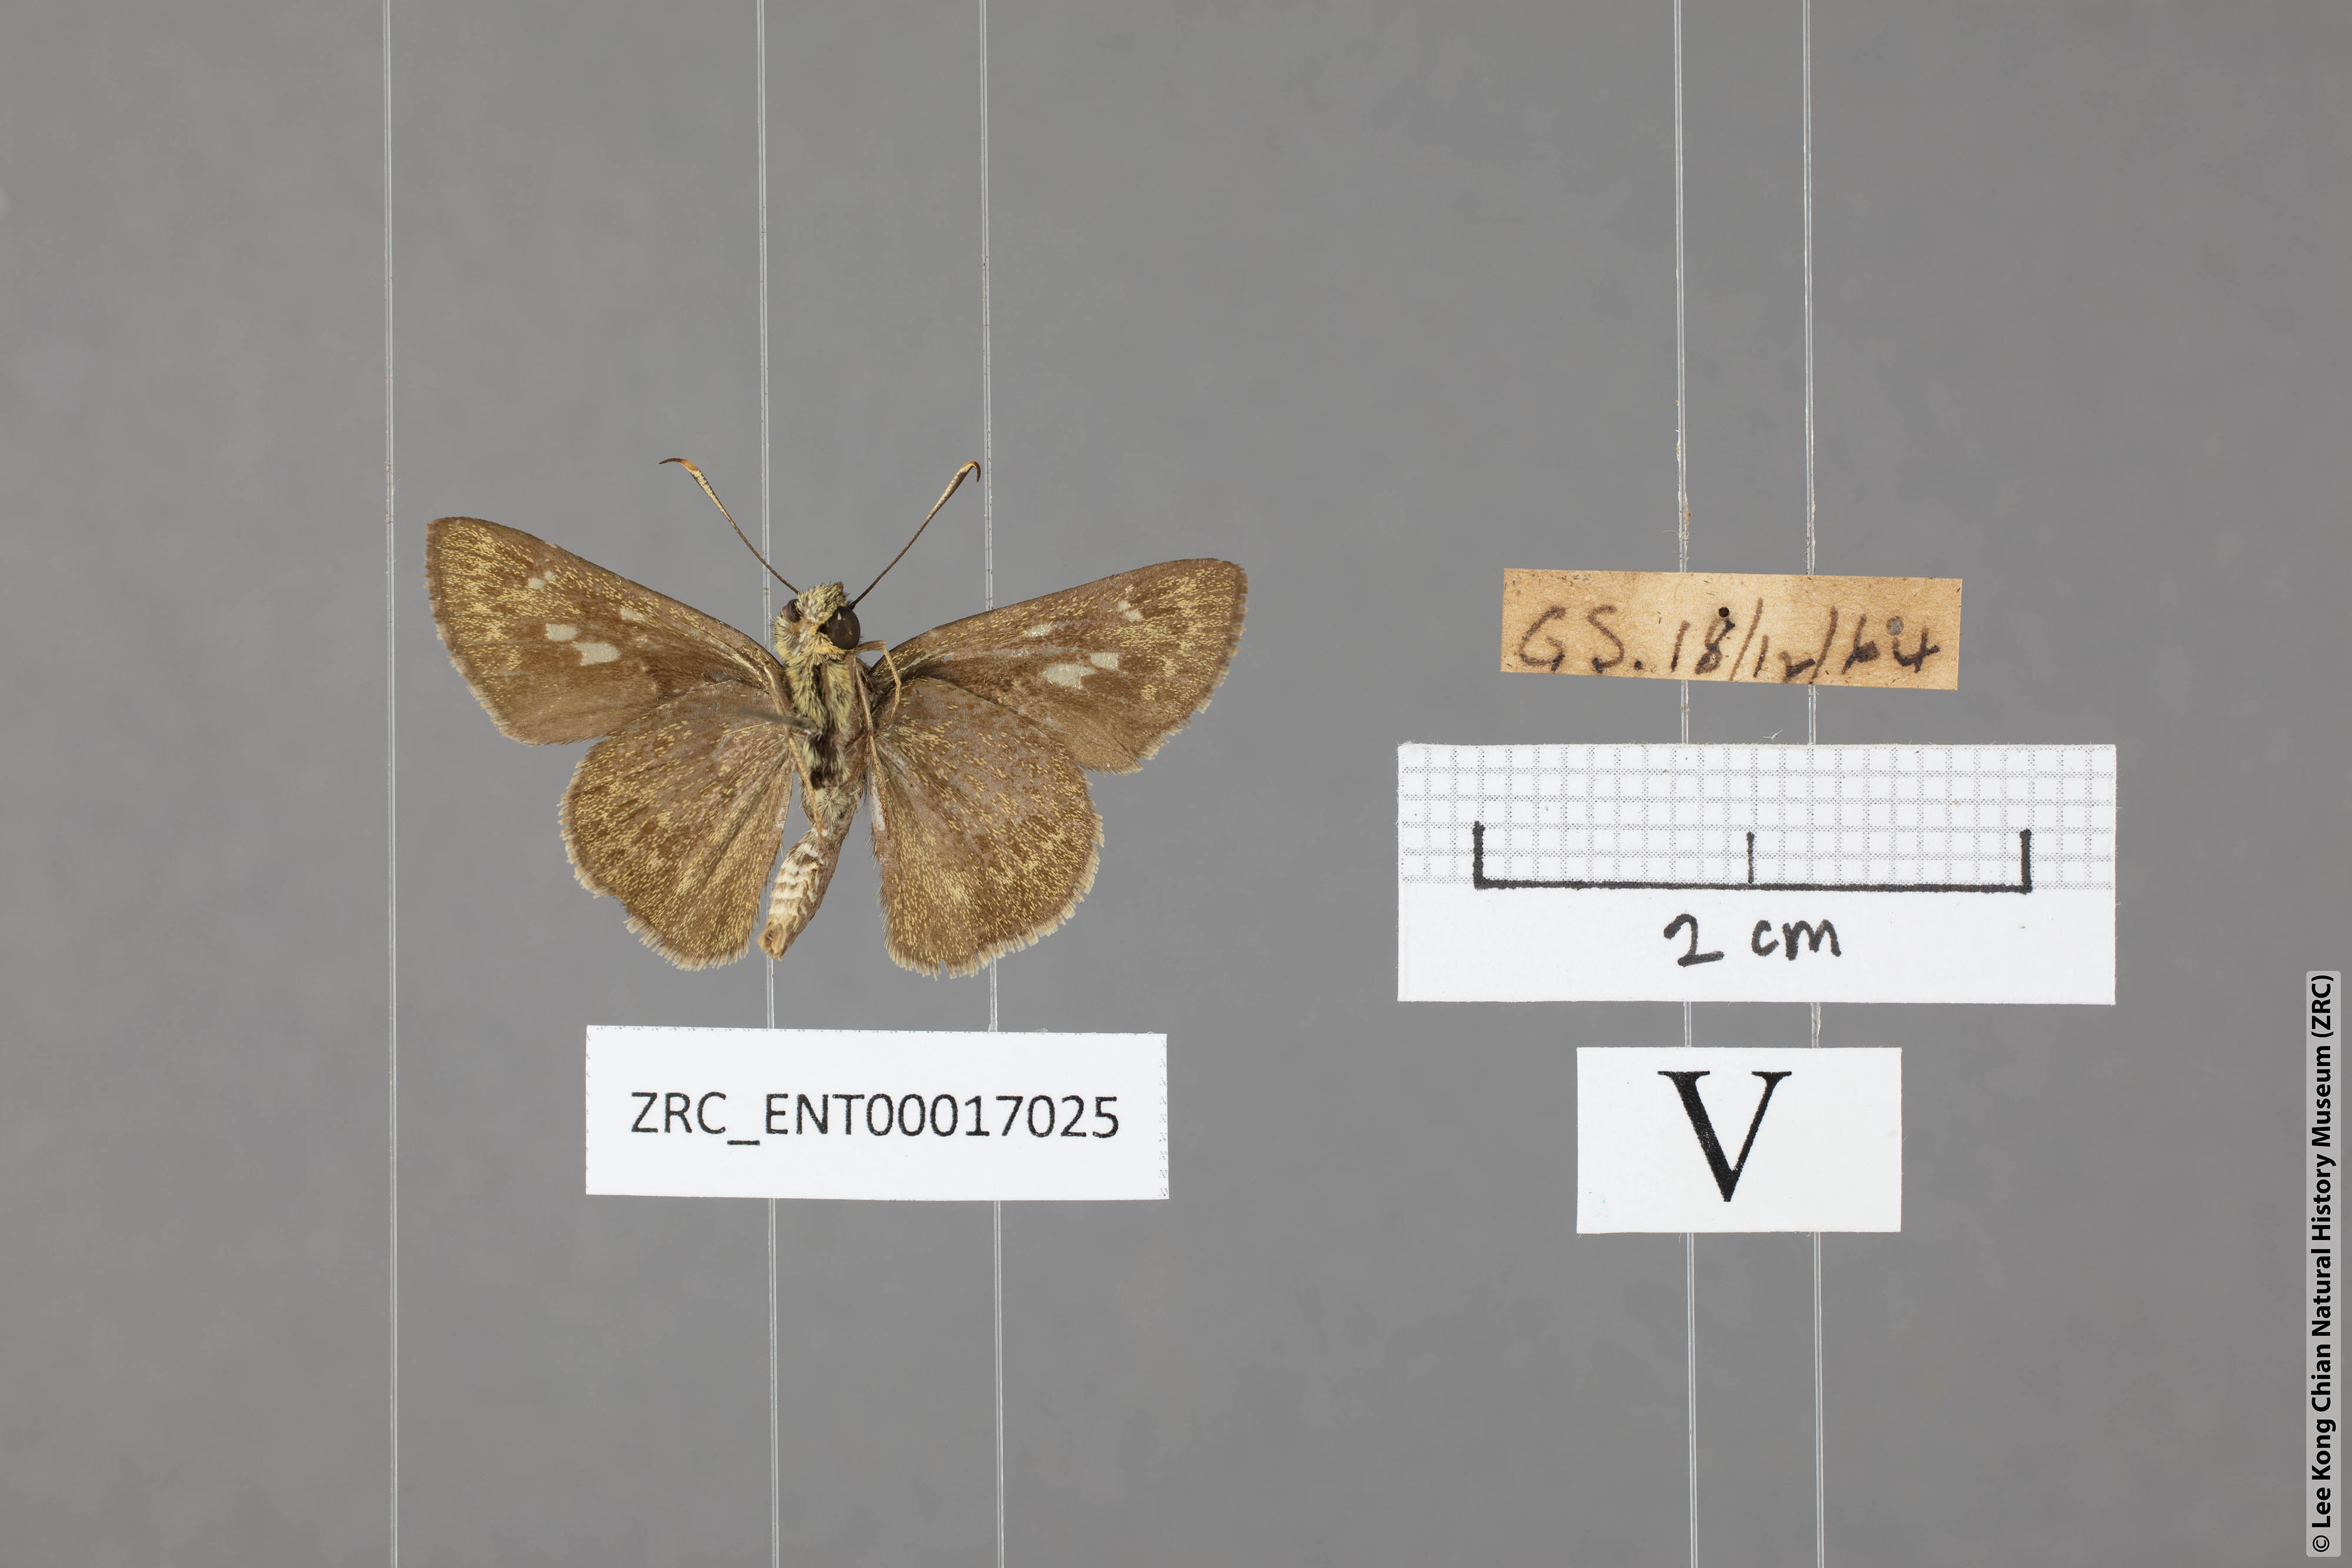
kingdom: Animalia
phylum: Arthropoda
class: Insecta
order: Lepidoptera
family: Hesperiidae
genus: Halpe
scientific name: Halpe pelethronix
